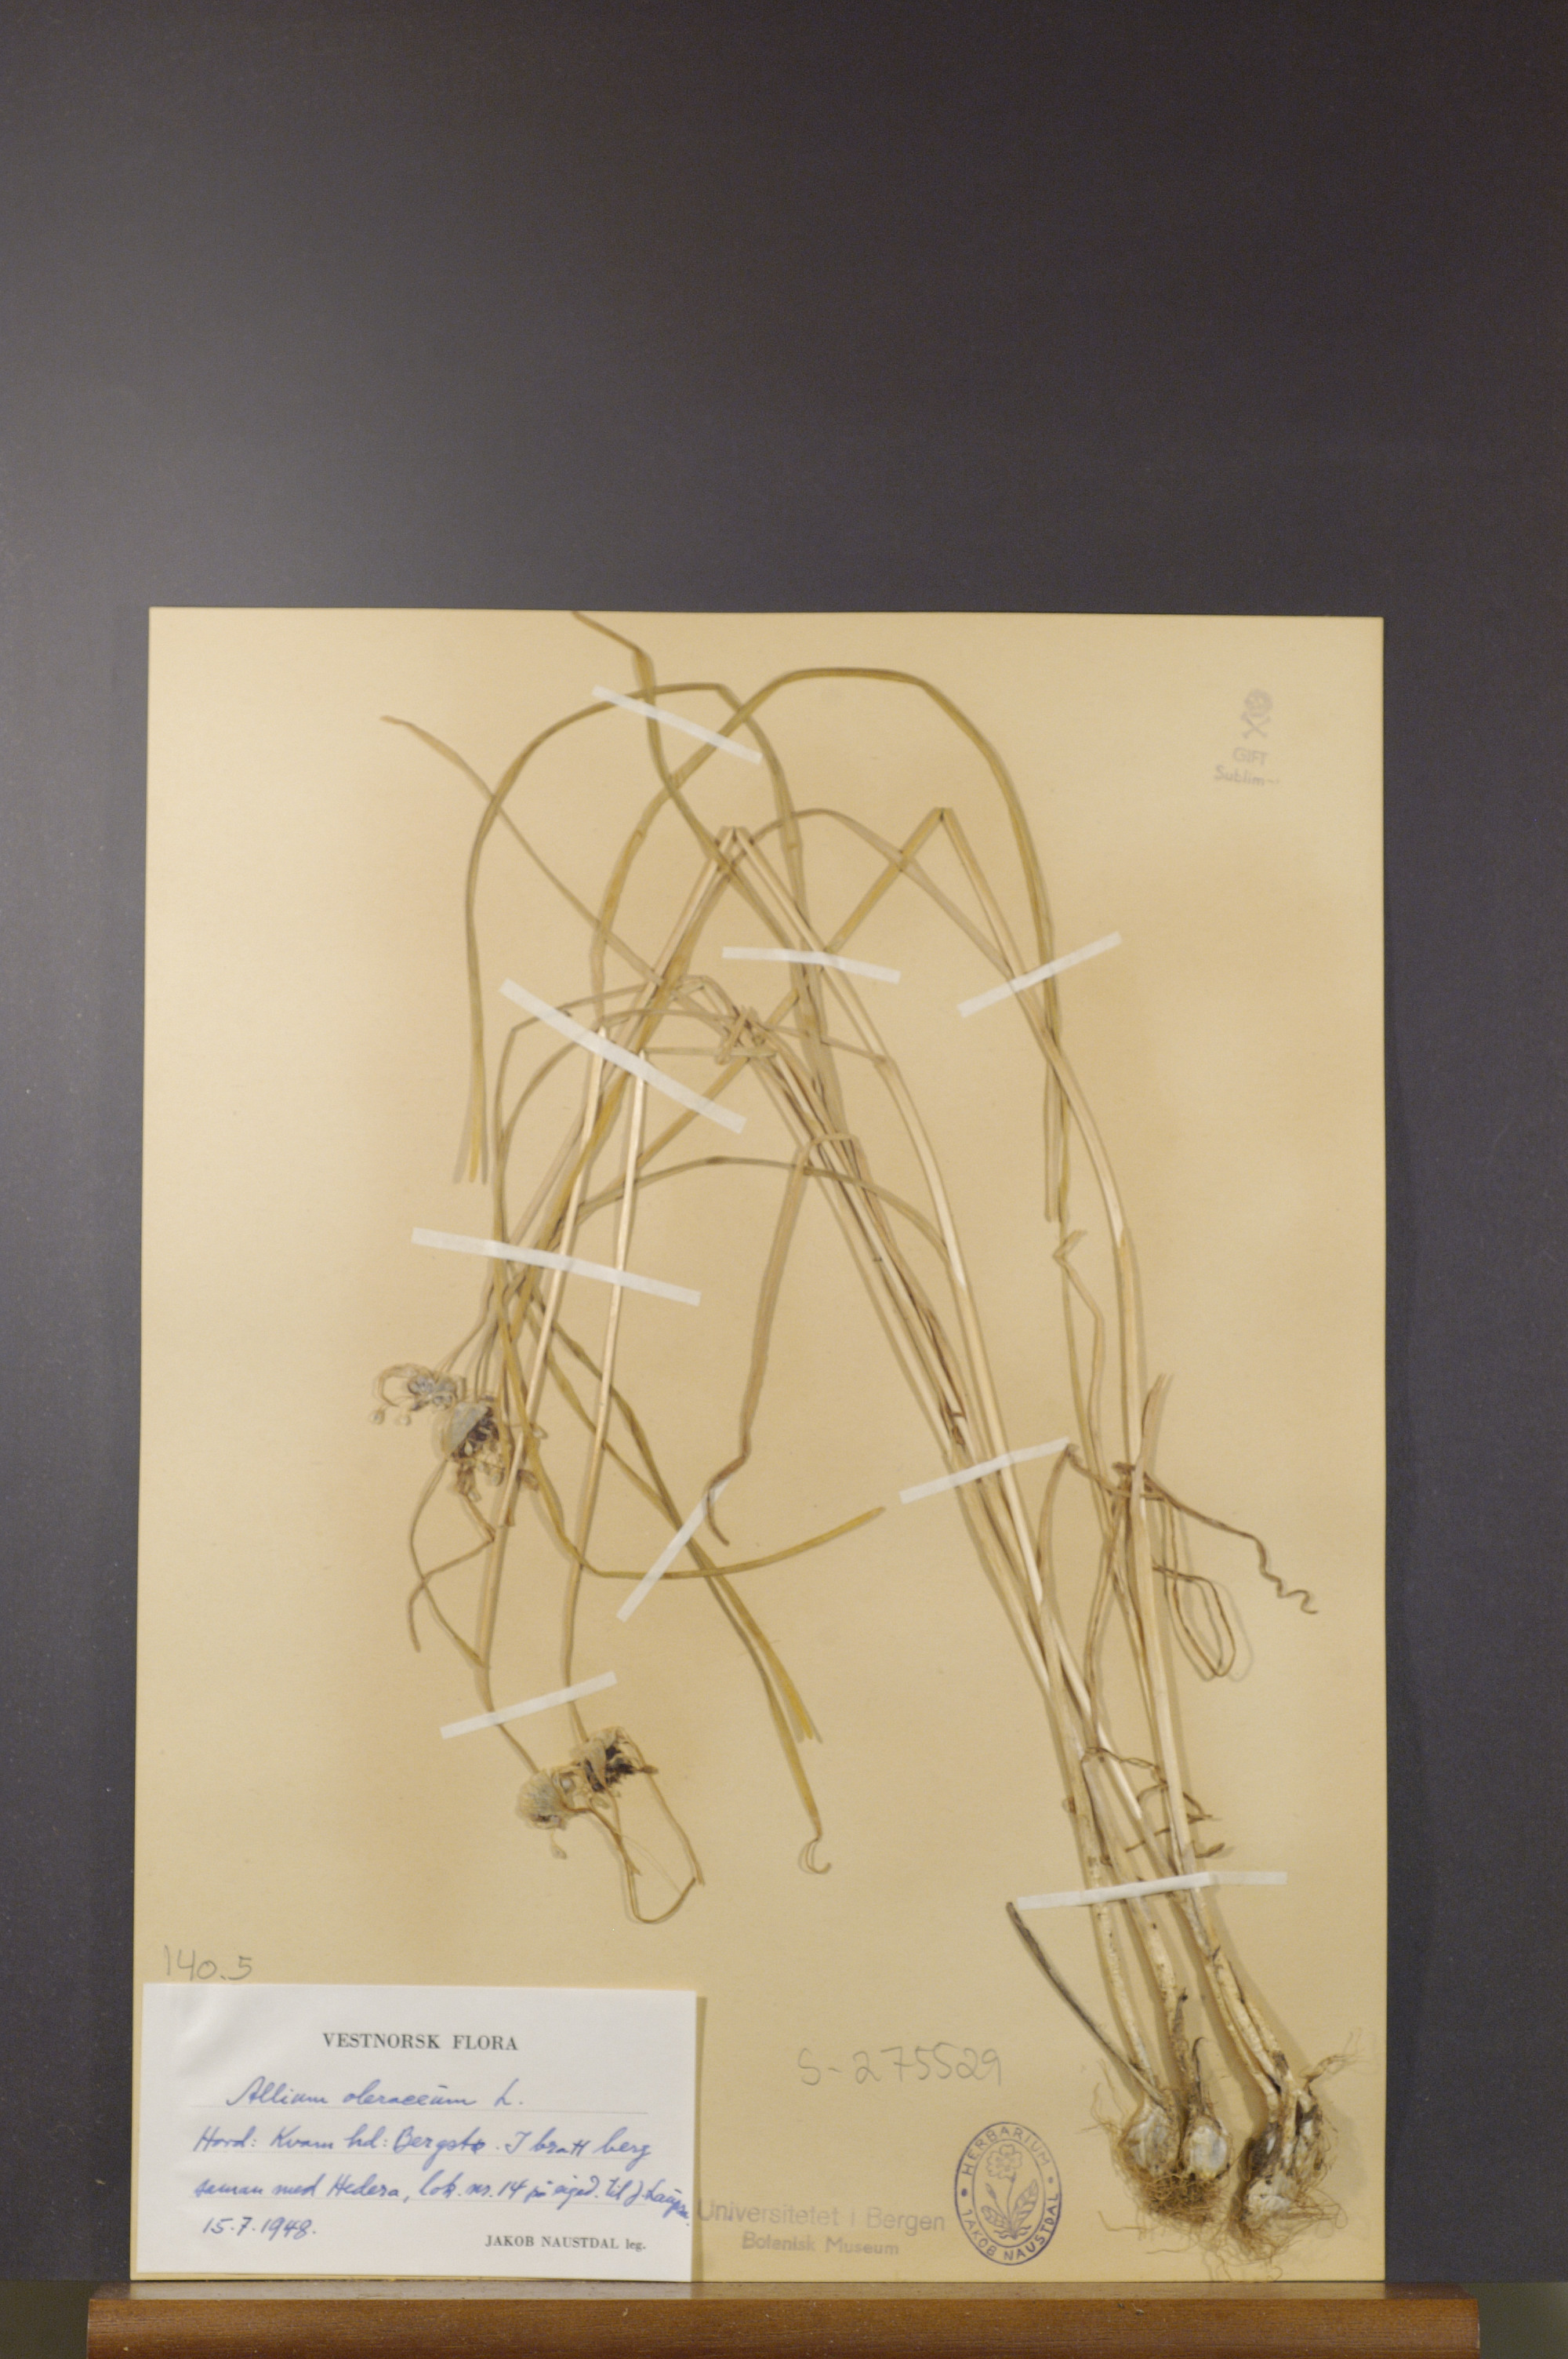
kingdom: Plantae
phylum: Tracheophyta
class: Liliopsida
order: Asparagales
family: Amaryllidaceae
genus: Allium
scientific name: Allium oleraceum
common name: Field garlic
